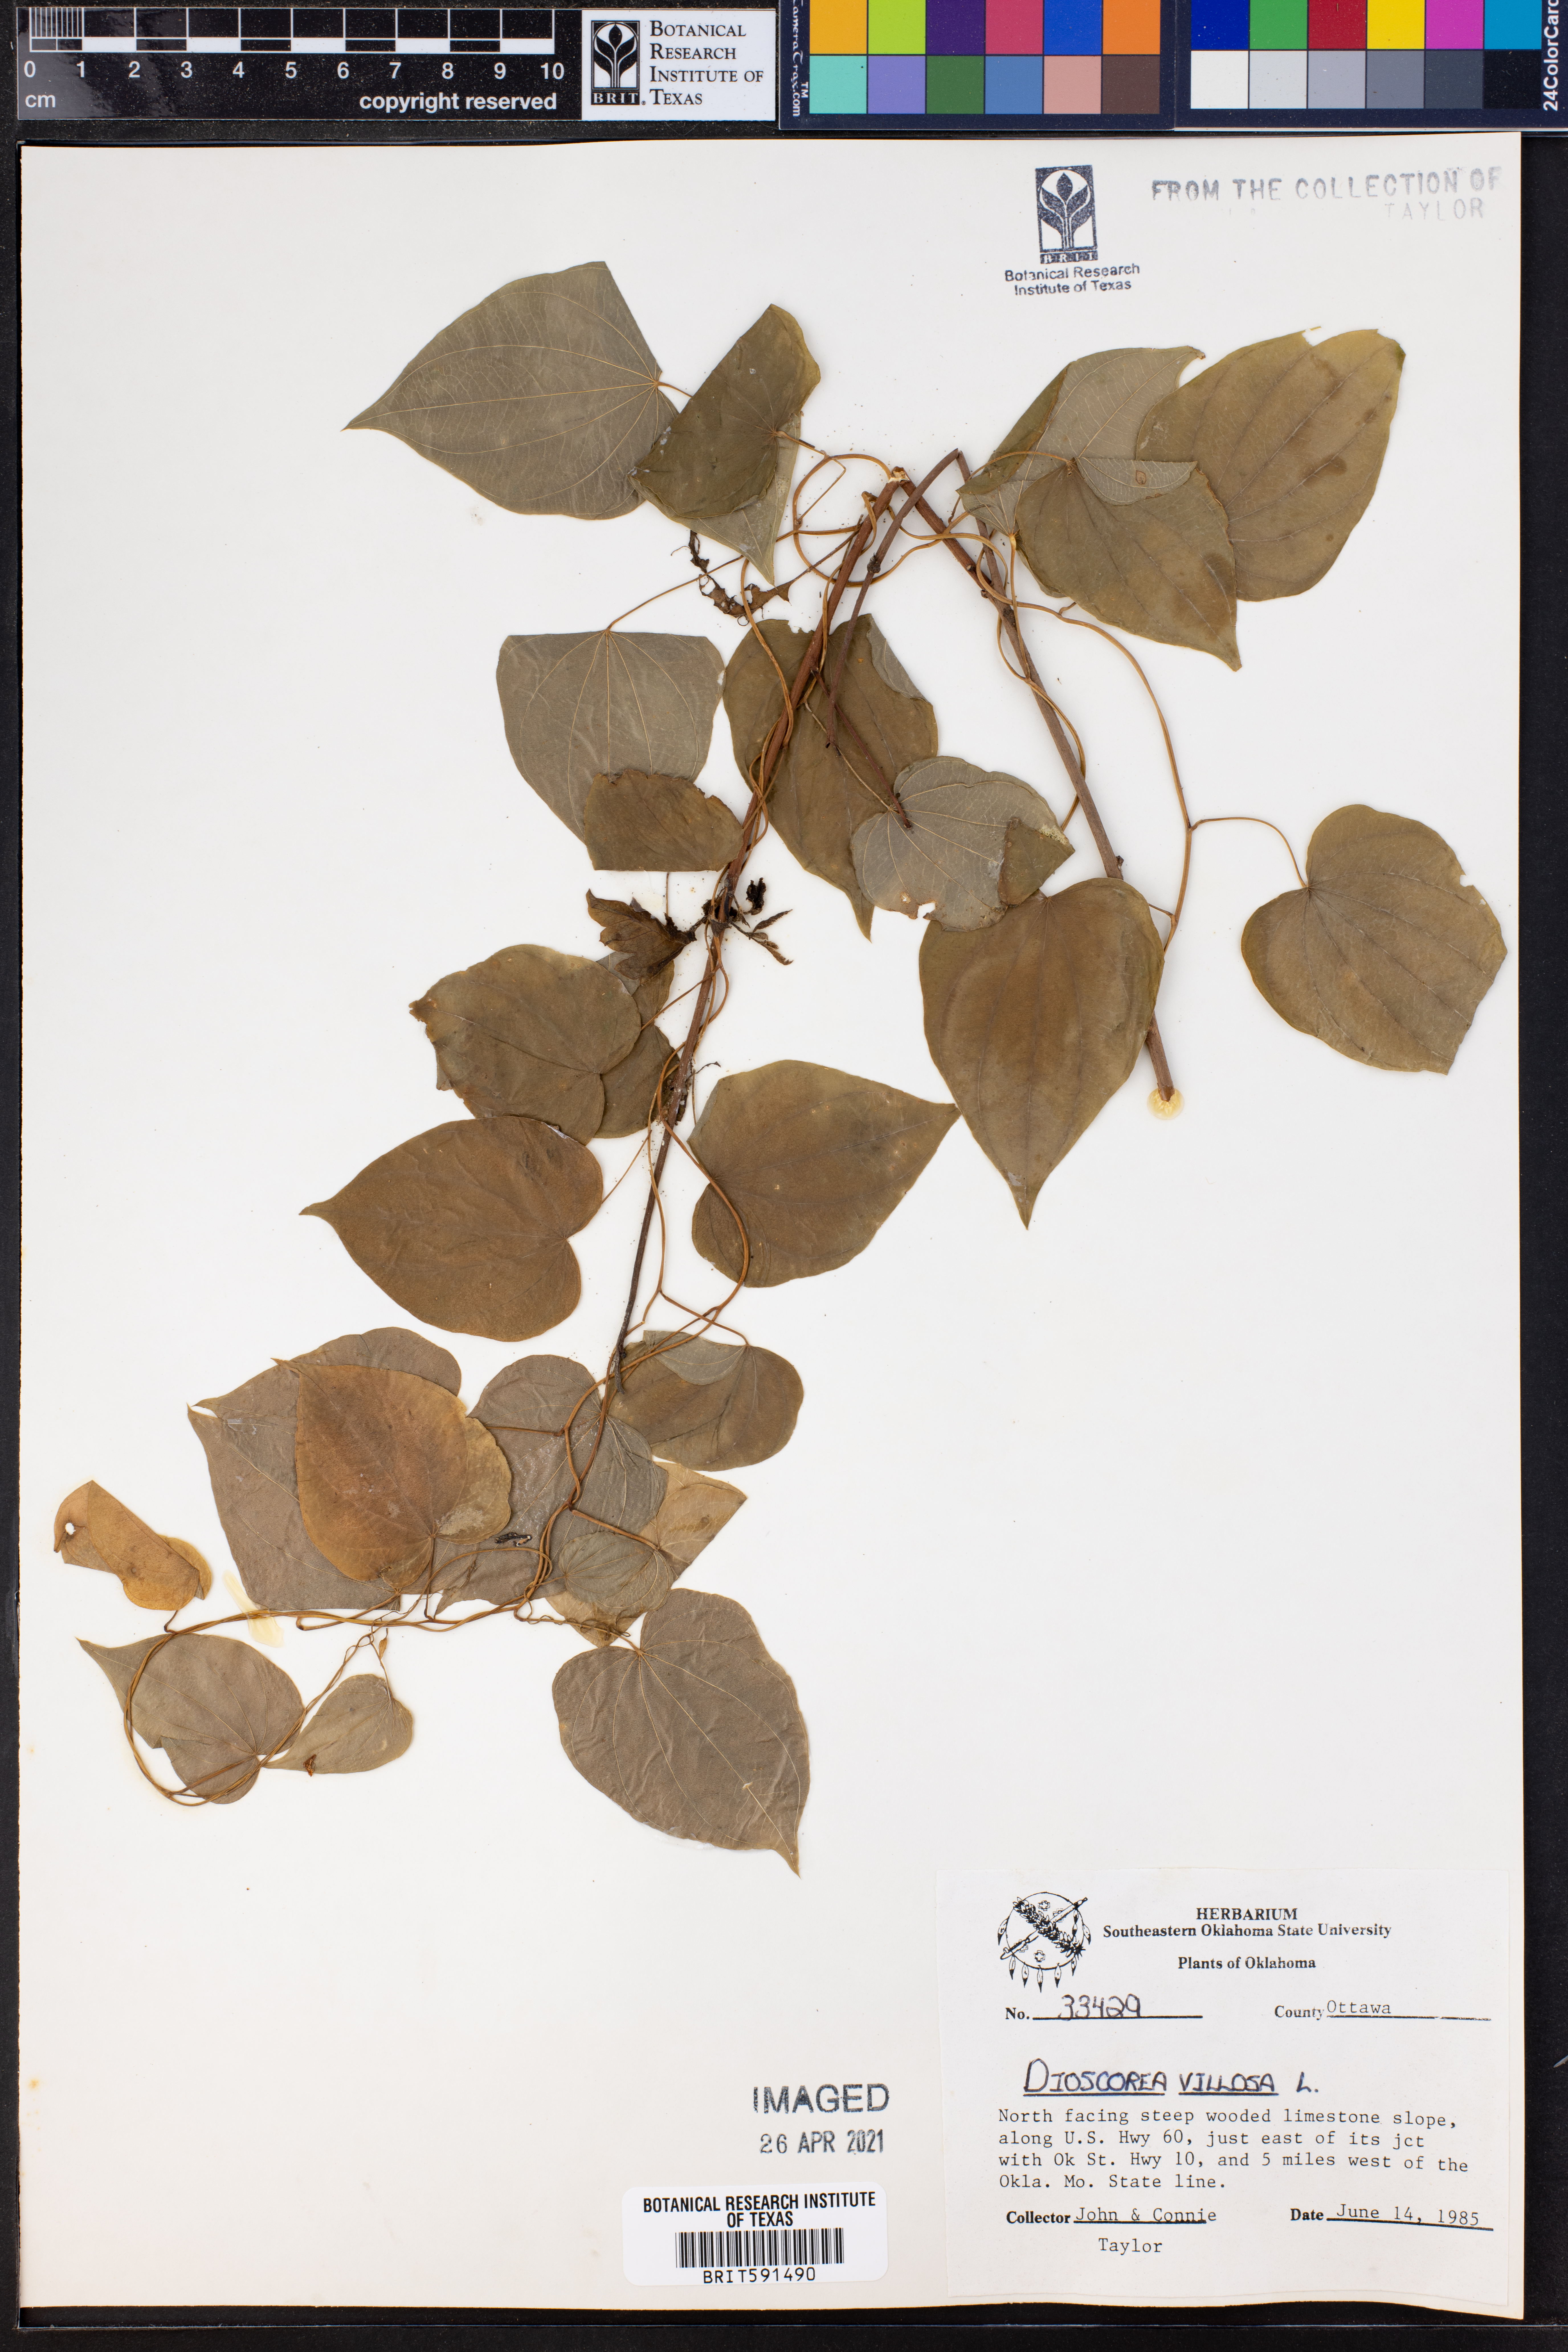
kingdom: Plantae
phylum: Tracheophyta
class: Liliopsida
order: Dioscoreales
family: Dioscoreaceae
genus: Dioscorea
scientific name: Dioscorea villosa
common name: Wild yam
